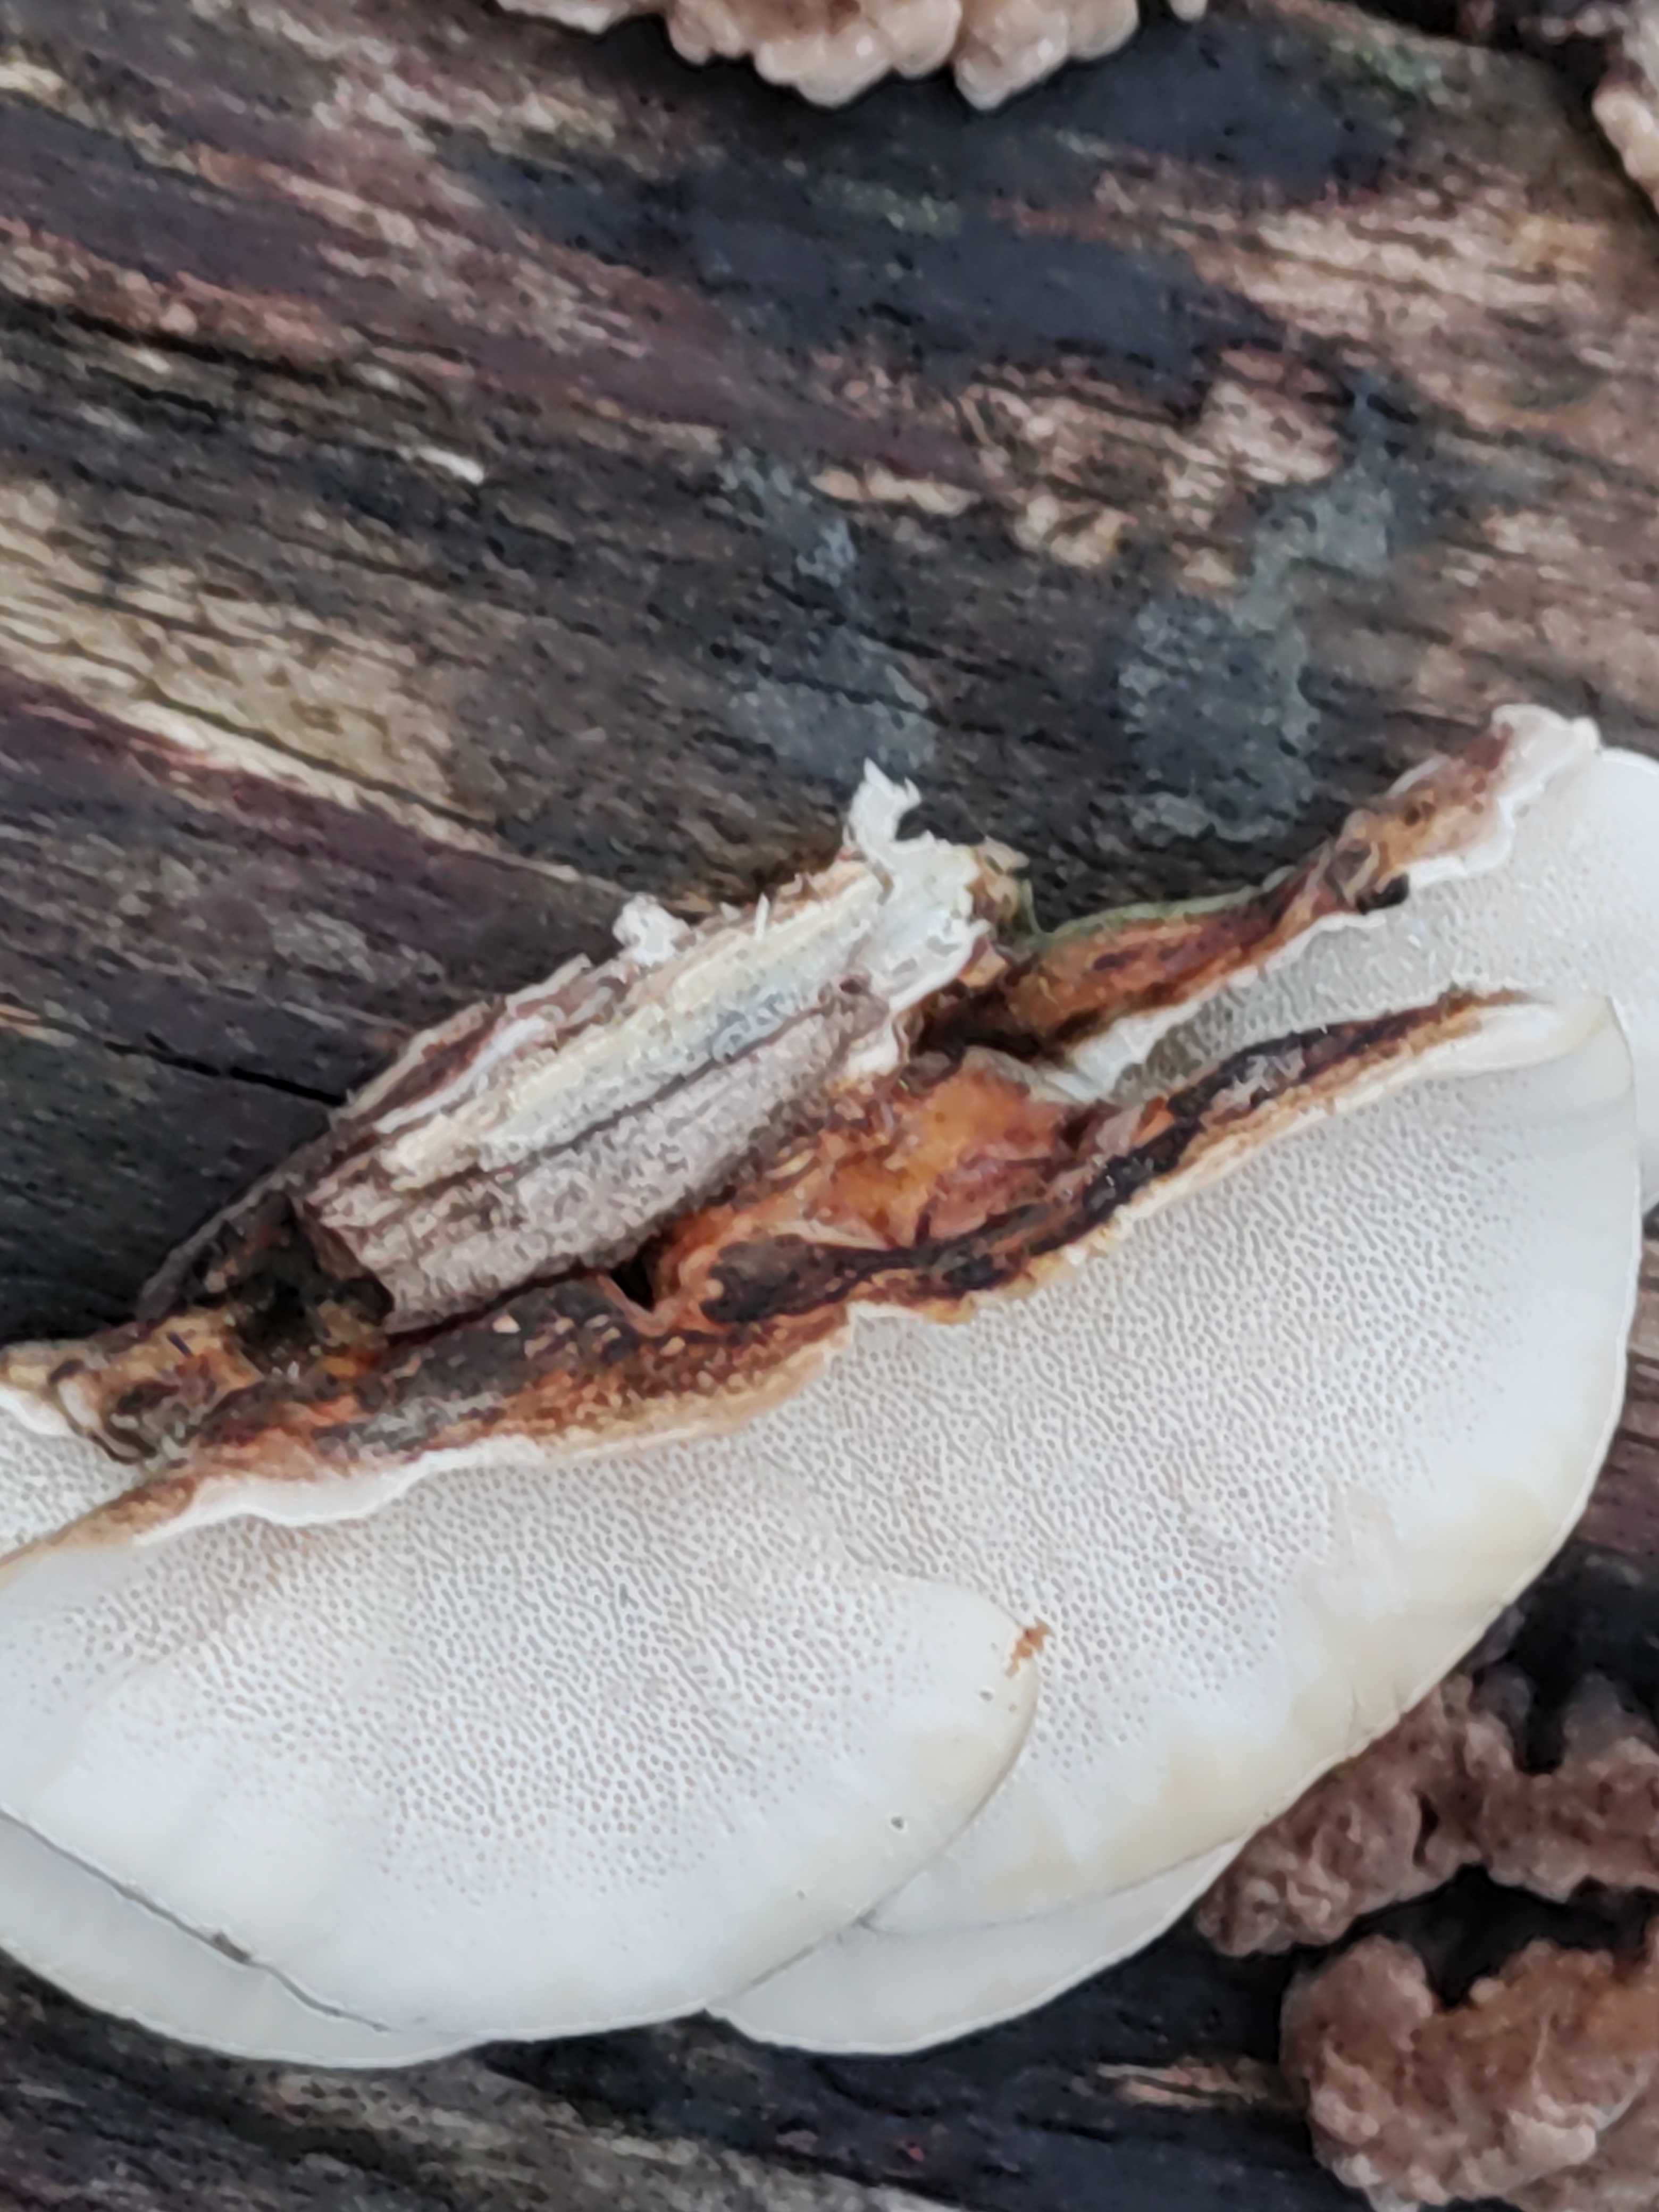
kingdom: Fungi
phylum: Basidiomycota
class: Agaricomycetes
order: Polyporales
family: Polyporaceae
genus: Trametes
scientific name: Trametes versicolor
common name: broget læderporesvamp
